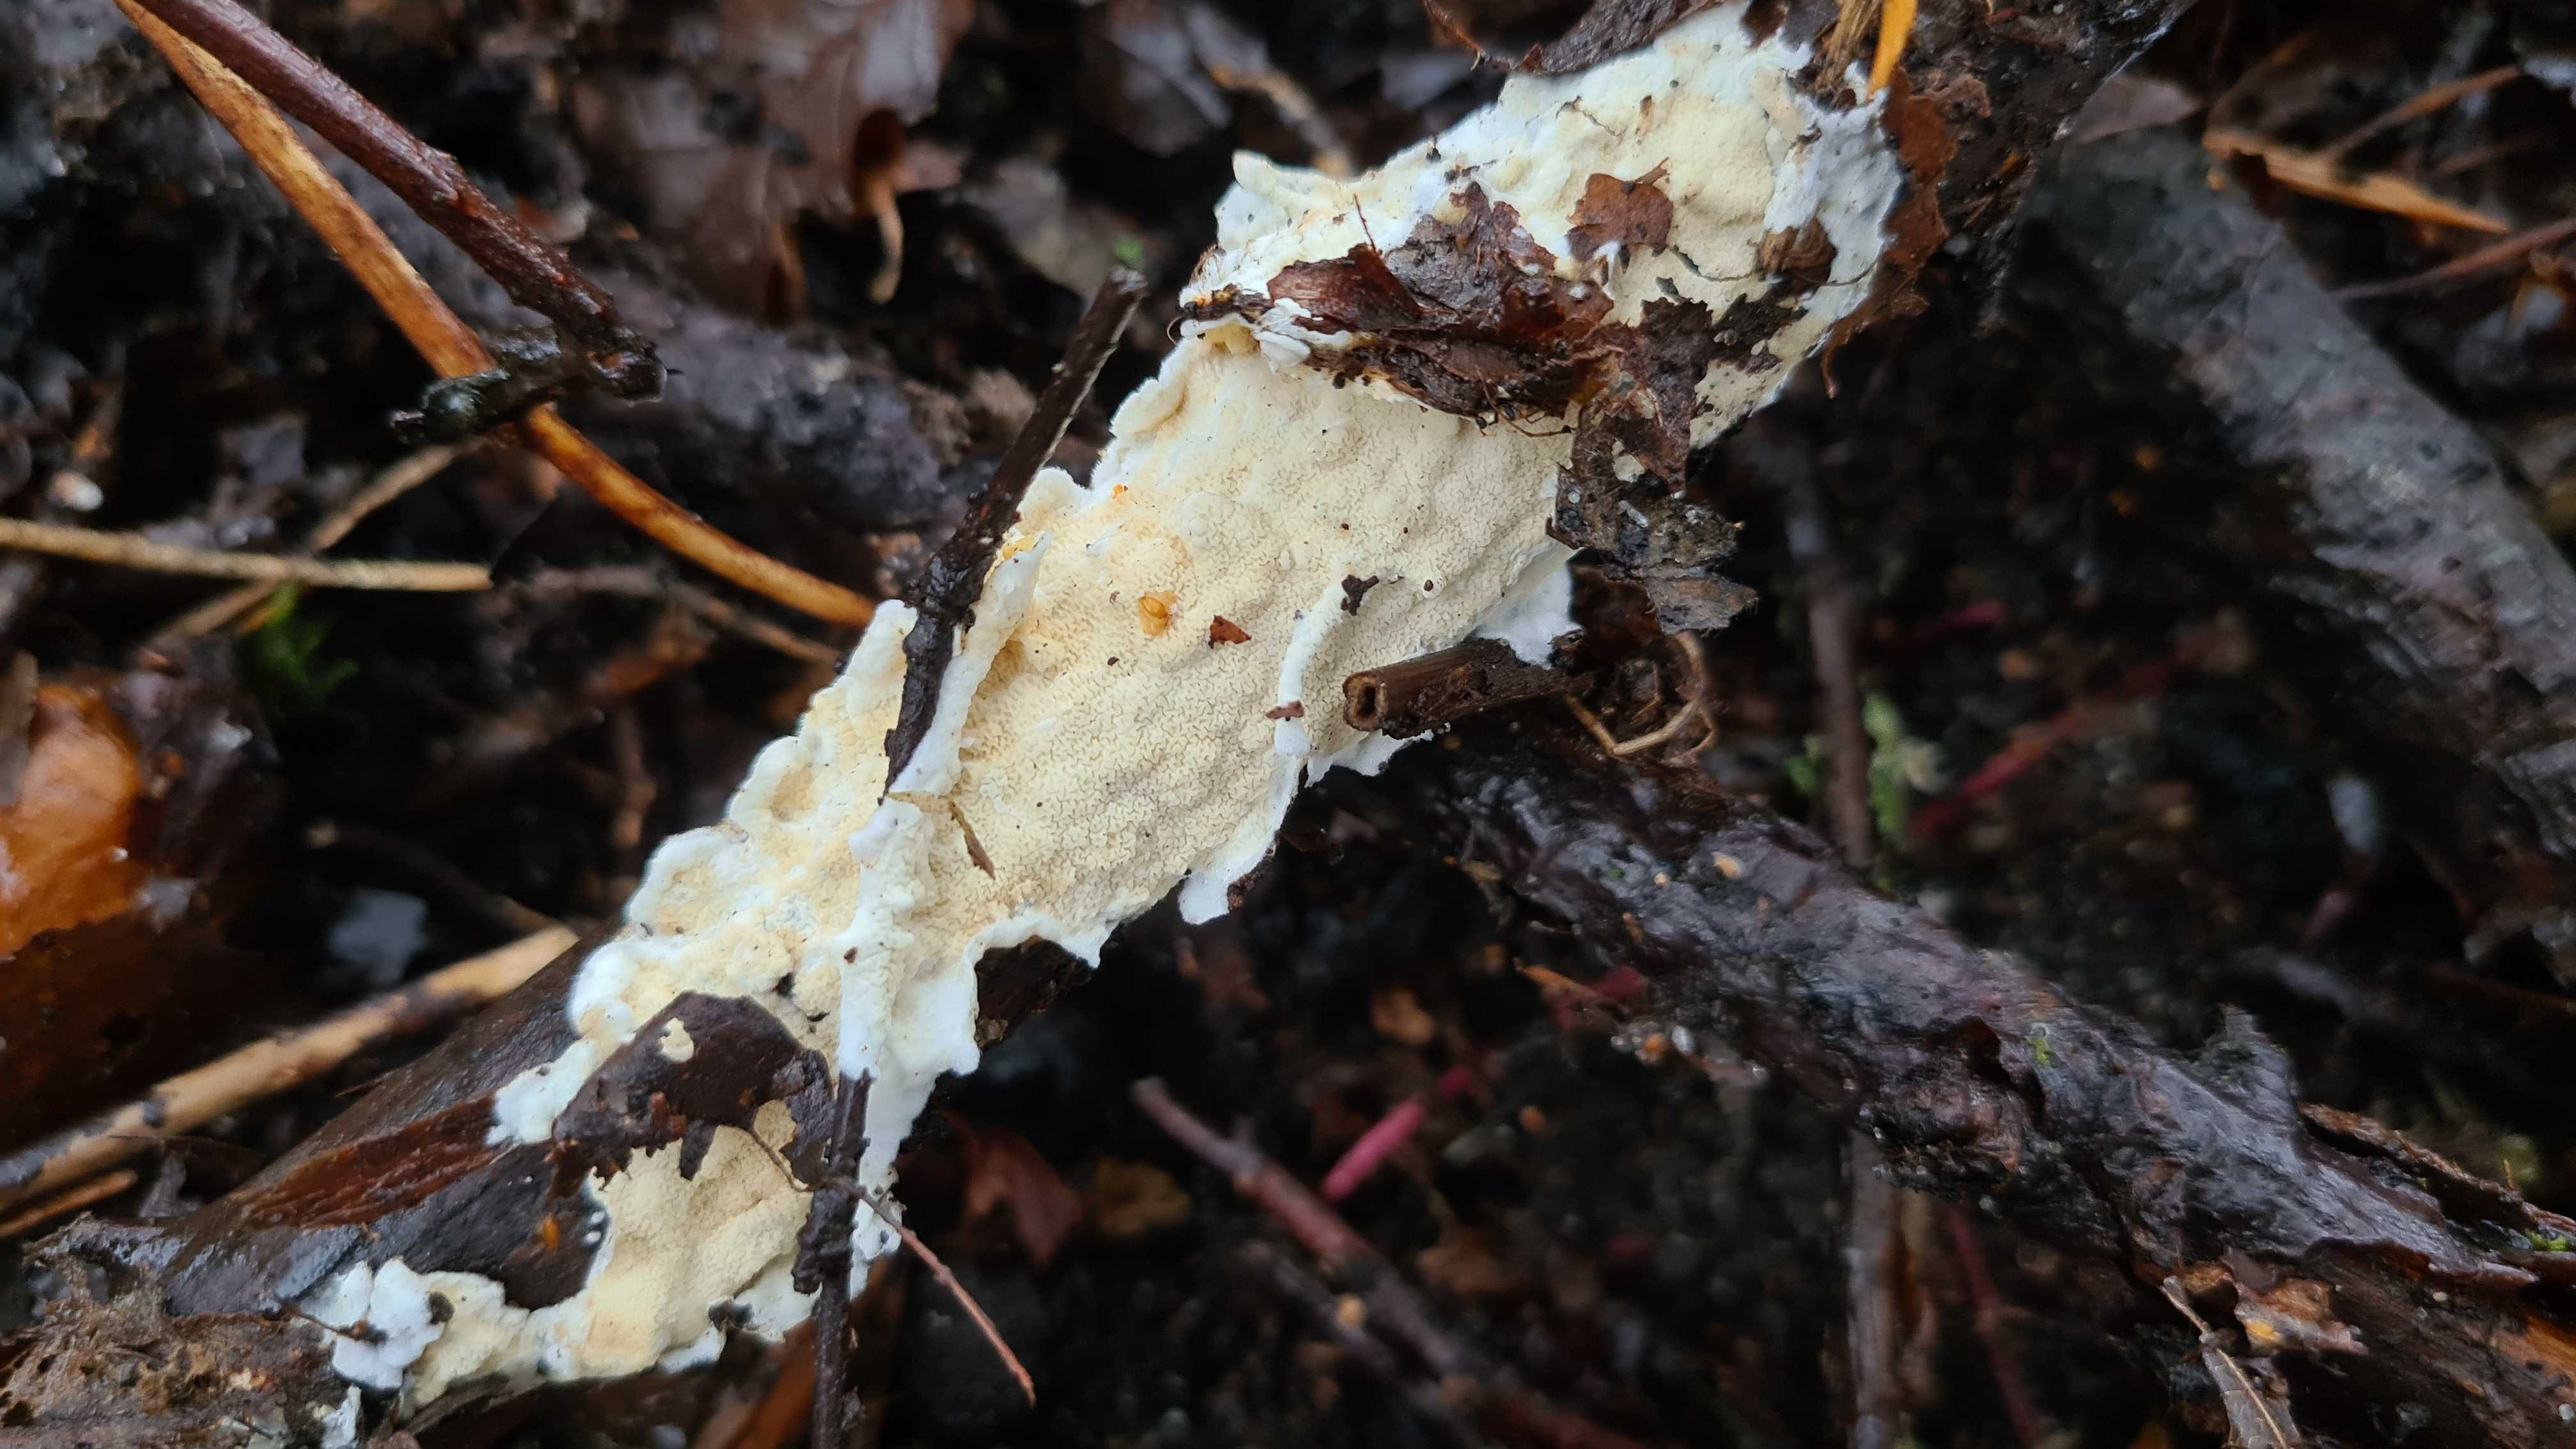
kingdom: Fungi
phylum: Basidiomycota
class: Agaricomycetes
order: Polyporales
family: Irpicaceae
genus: Byssomerulius
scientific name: Byssomerulius corium
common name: læder-åresvamp
